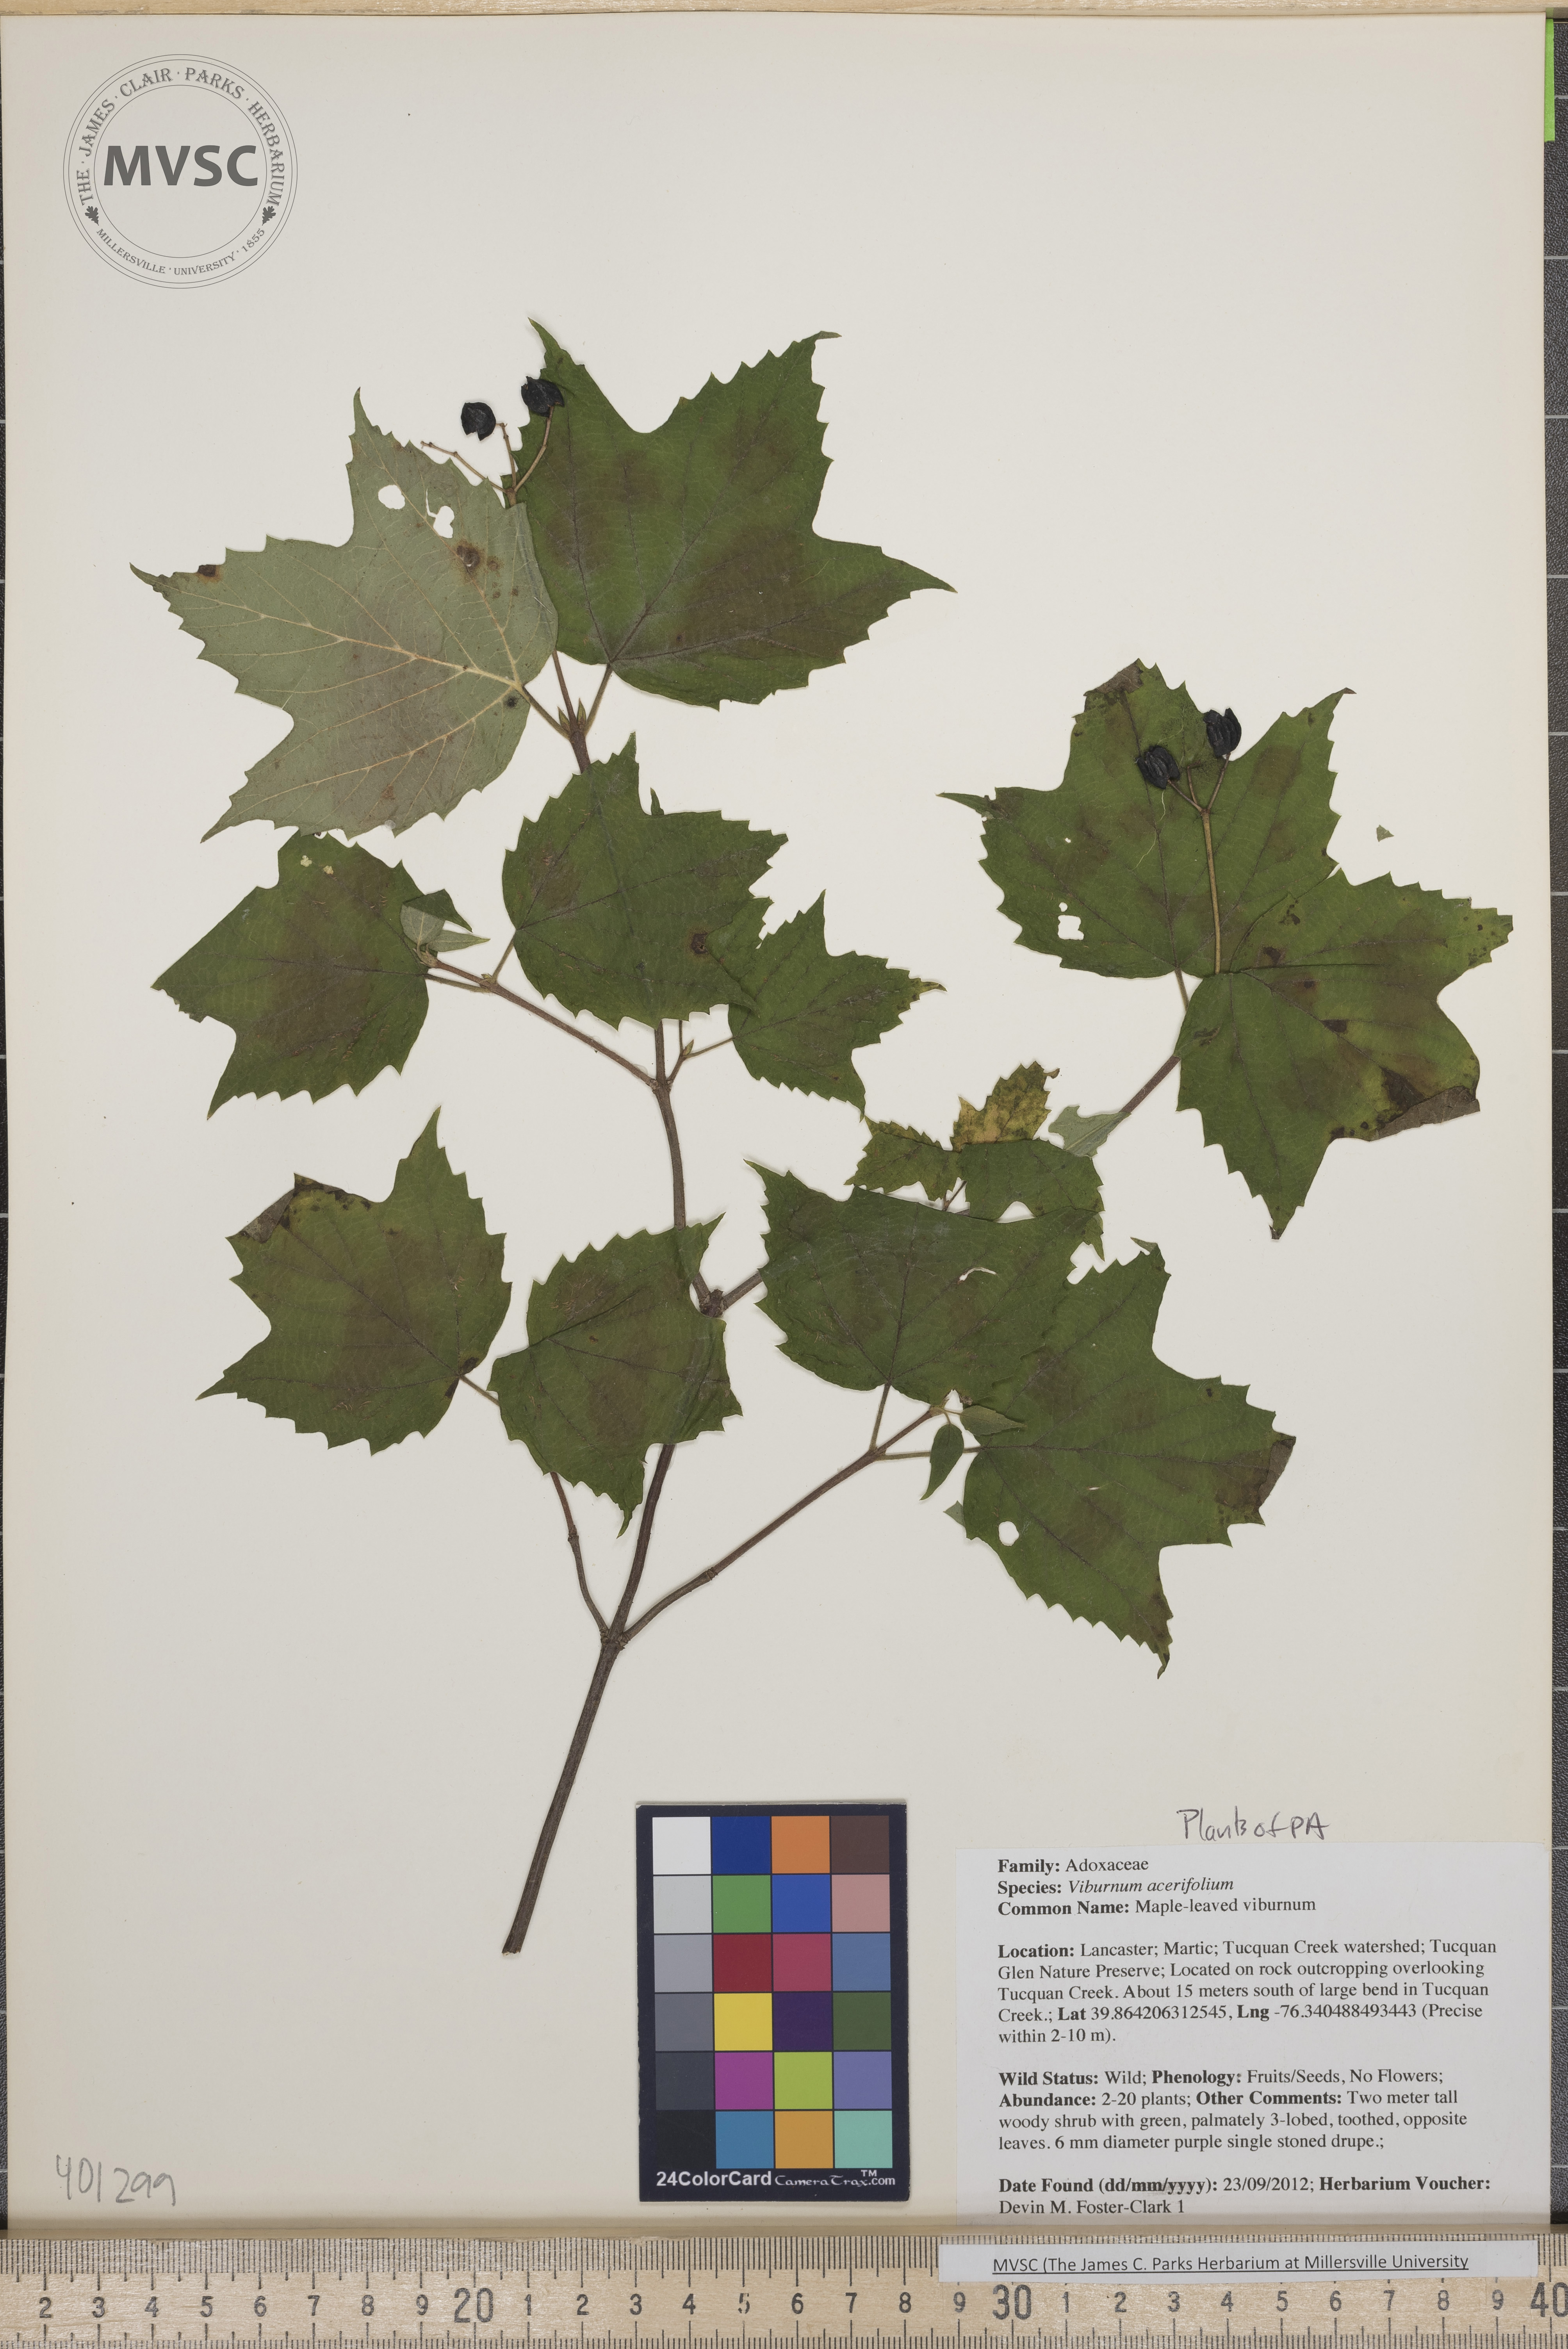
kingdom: Plantae
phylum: Tracheophyta
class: Magnoliopsida
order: Dipsacales
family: Viburnaceae
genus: Viburnum
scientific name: Viburnum acerifolium
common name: Maple-leaved viburnum
